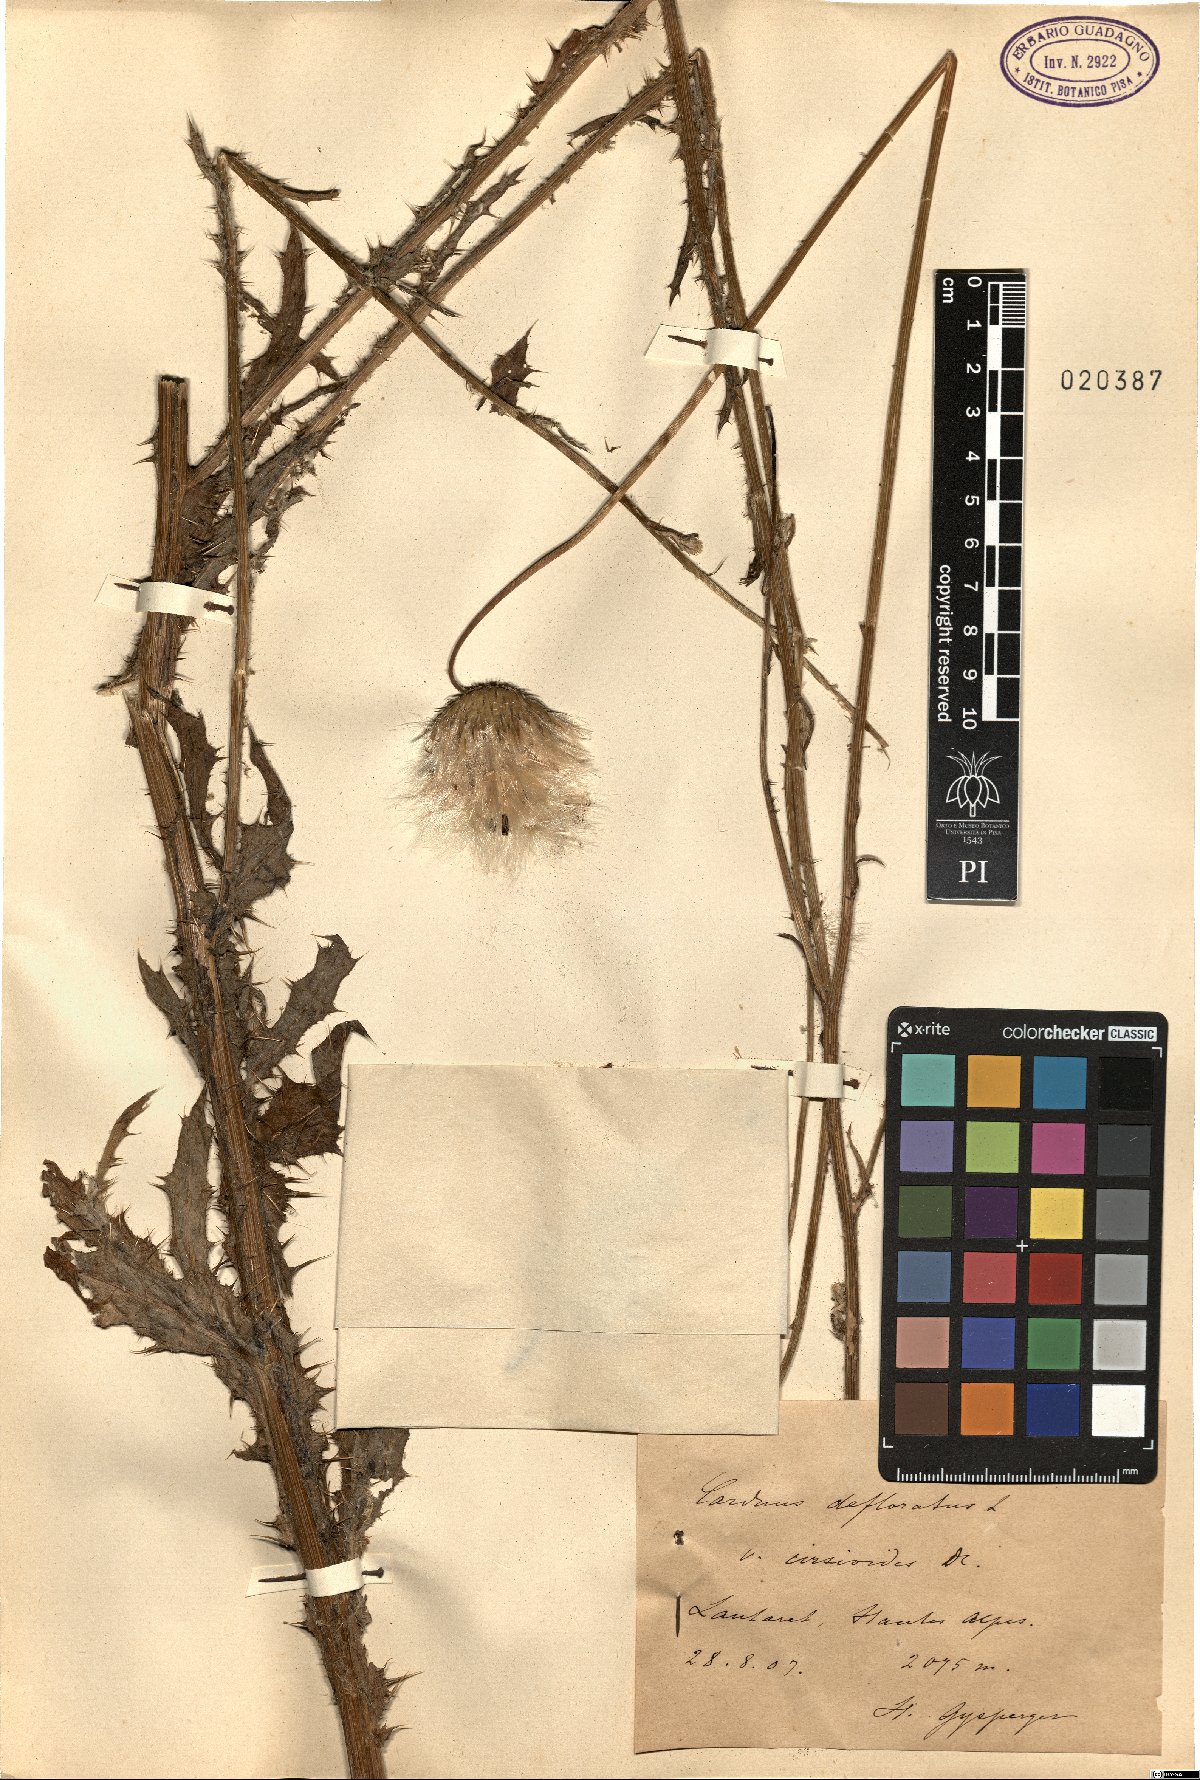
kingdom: Plantae
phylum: Tracheophyta
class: Magnoliopsida
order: Asterales
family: Asteraceae
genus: Carduus
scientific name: Carduus defloratus
